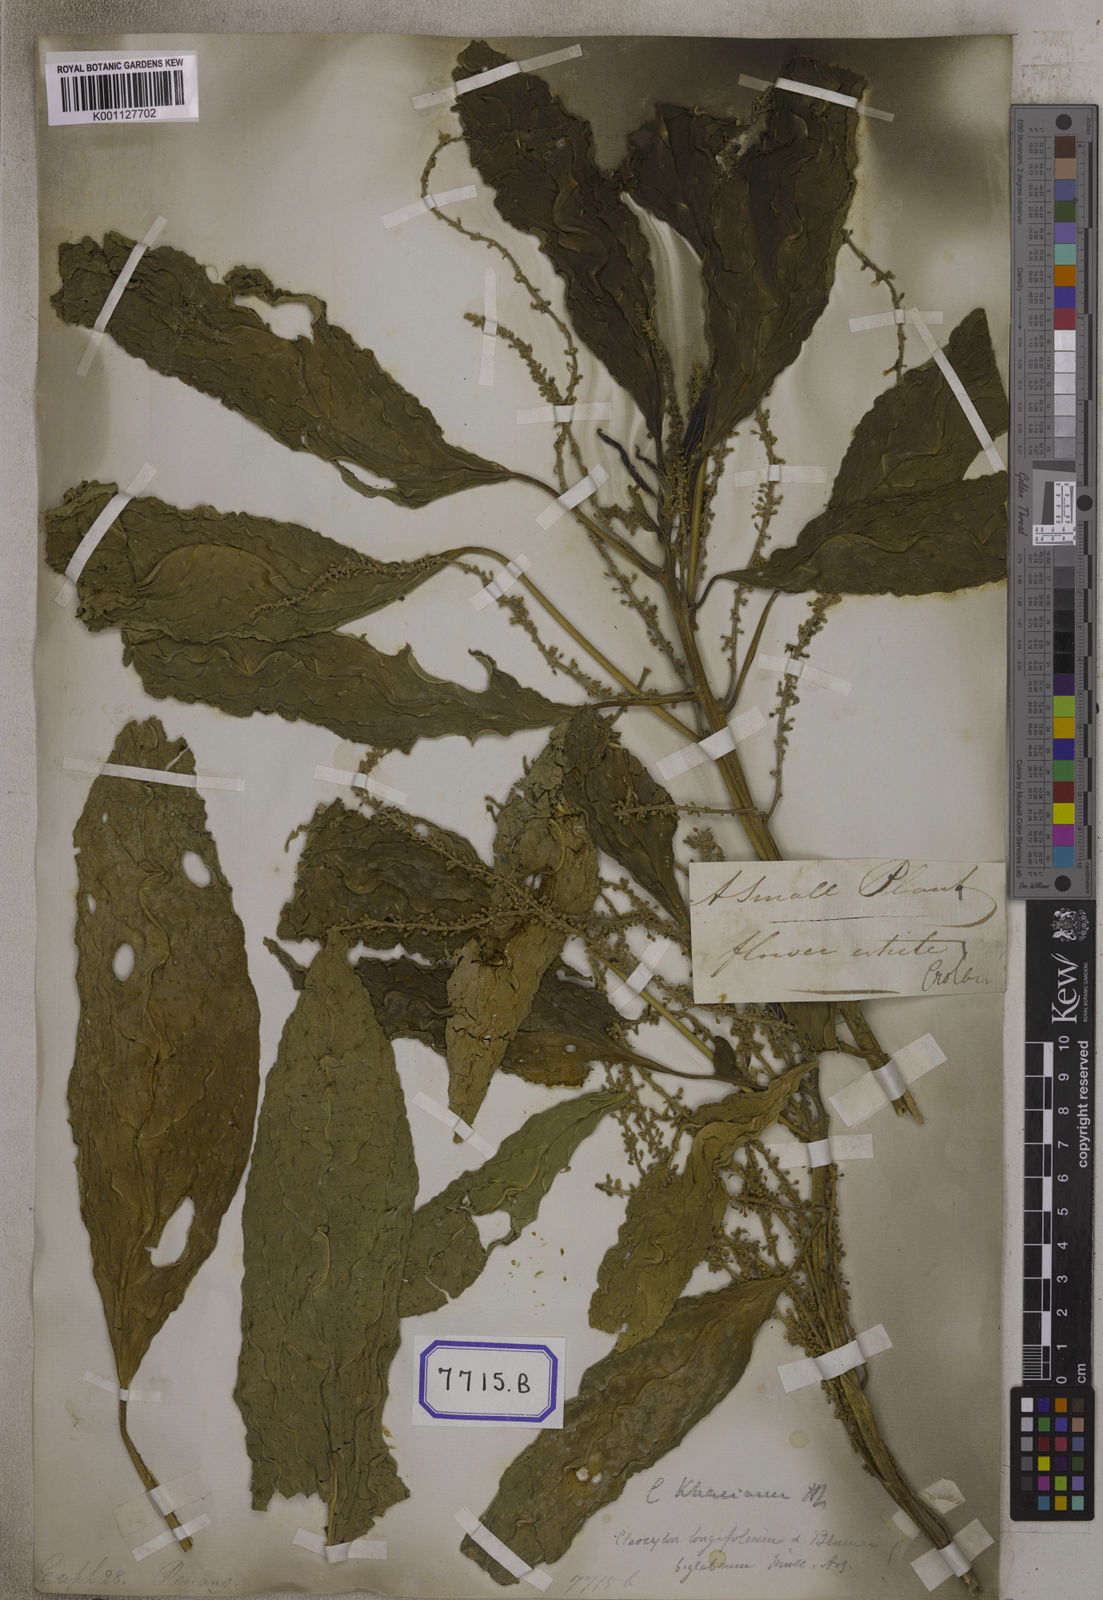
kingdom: Plantae
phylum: Tracheophyta
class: Magnoliopsida
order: Malpighiales
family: Euphorbiaceae
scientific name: Euphorbiaceae
